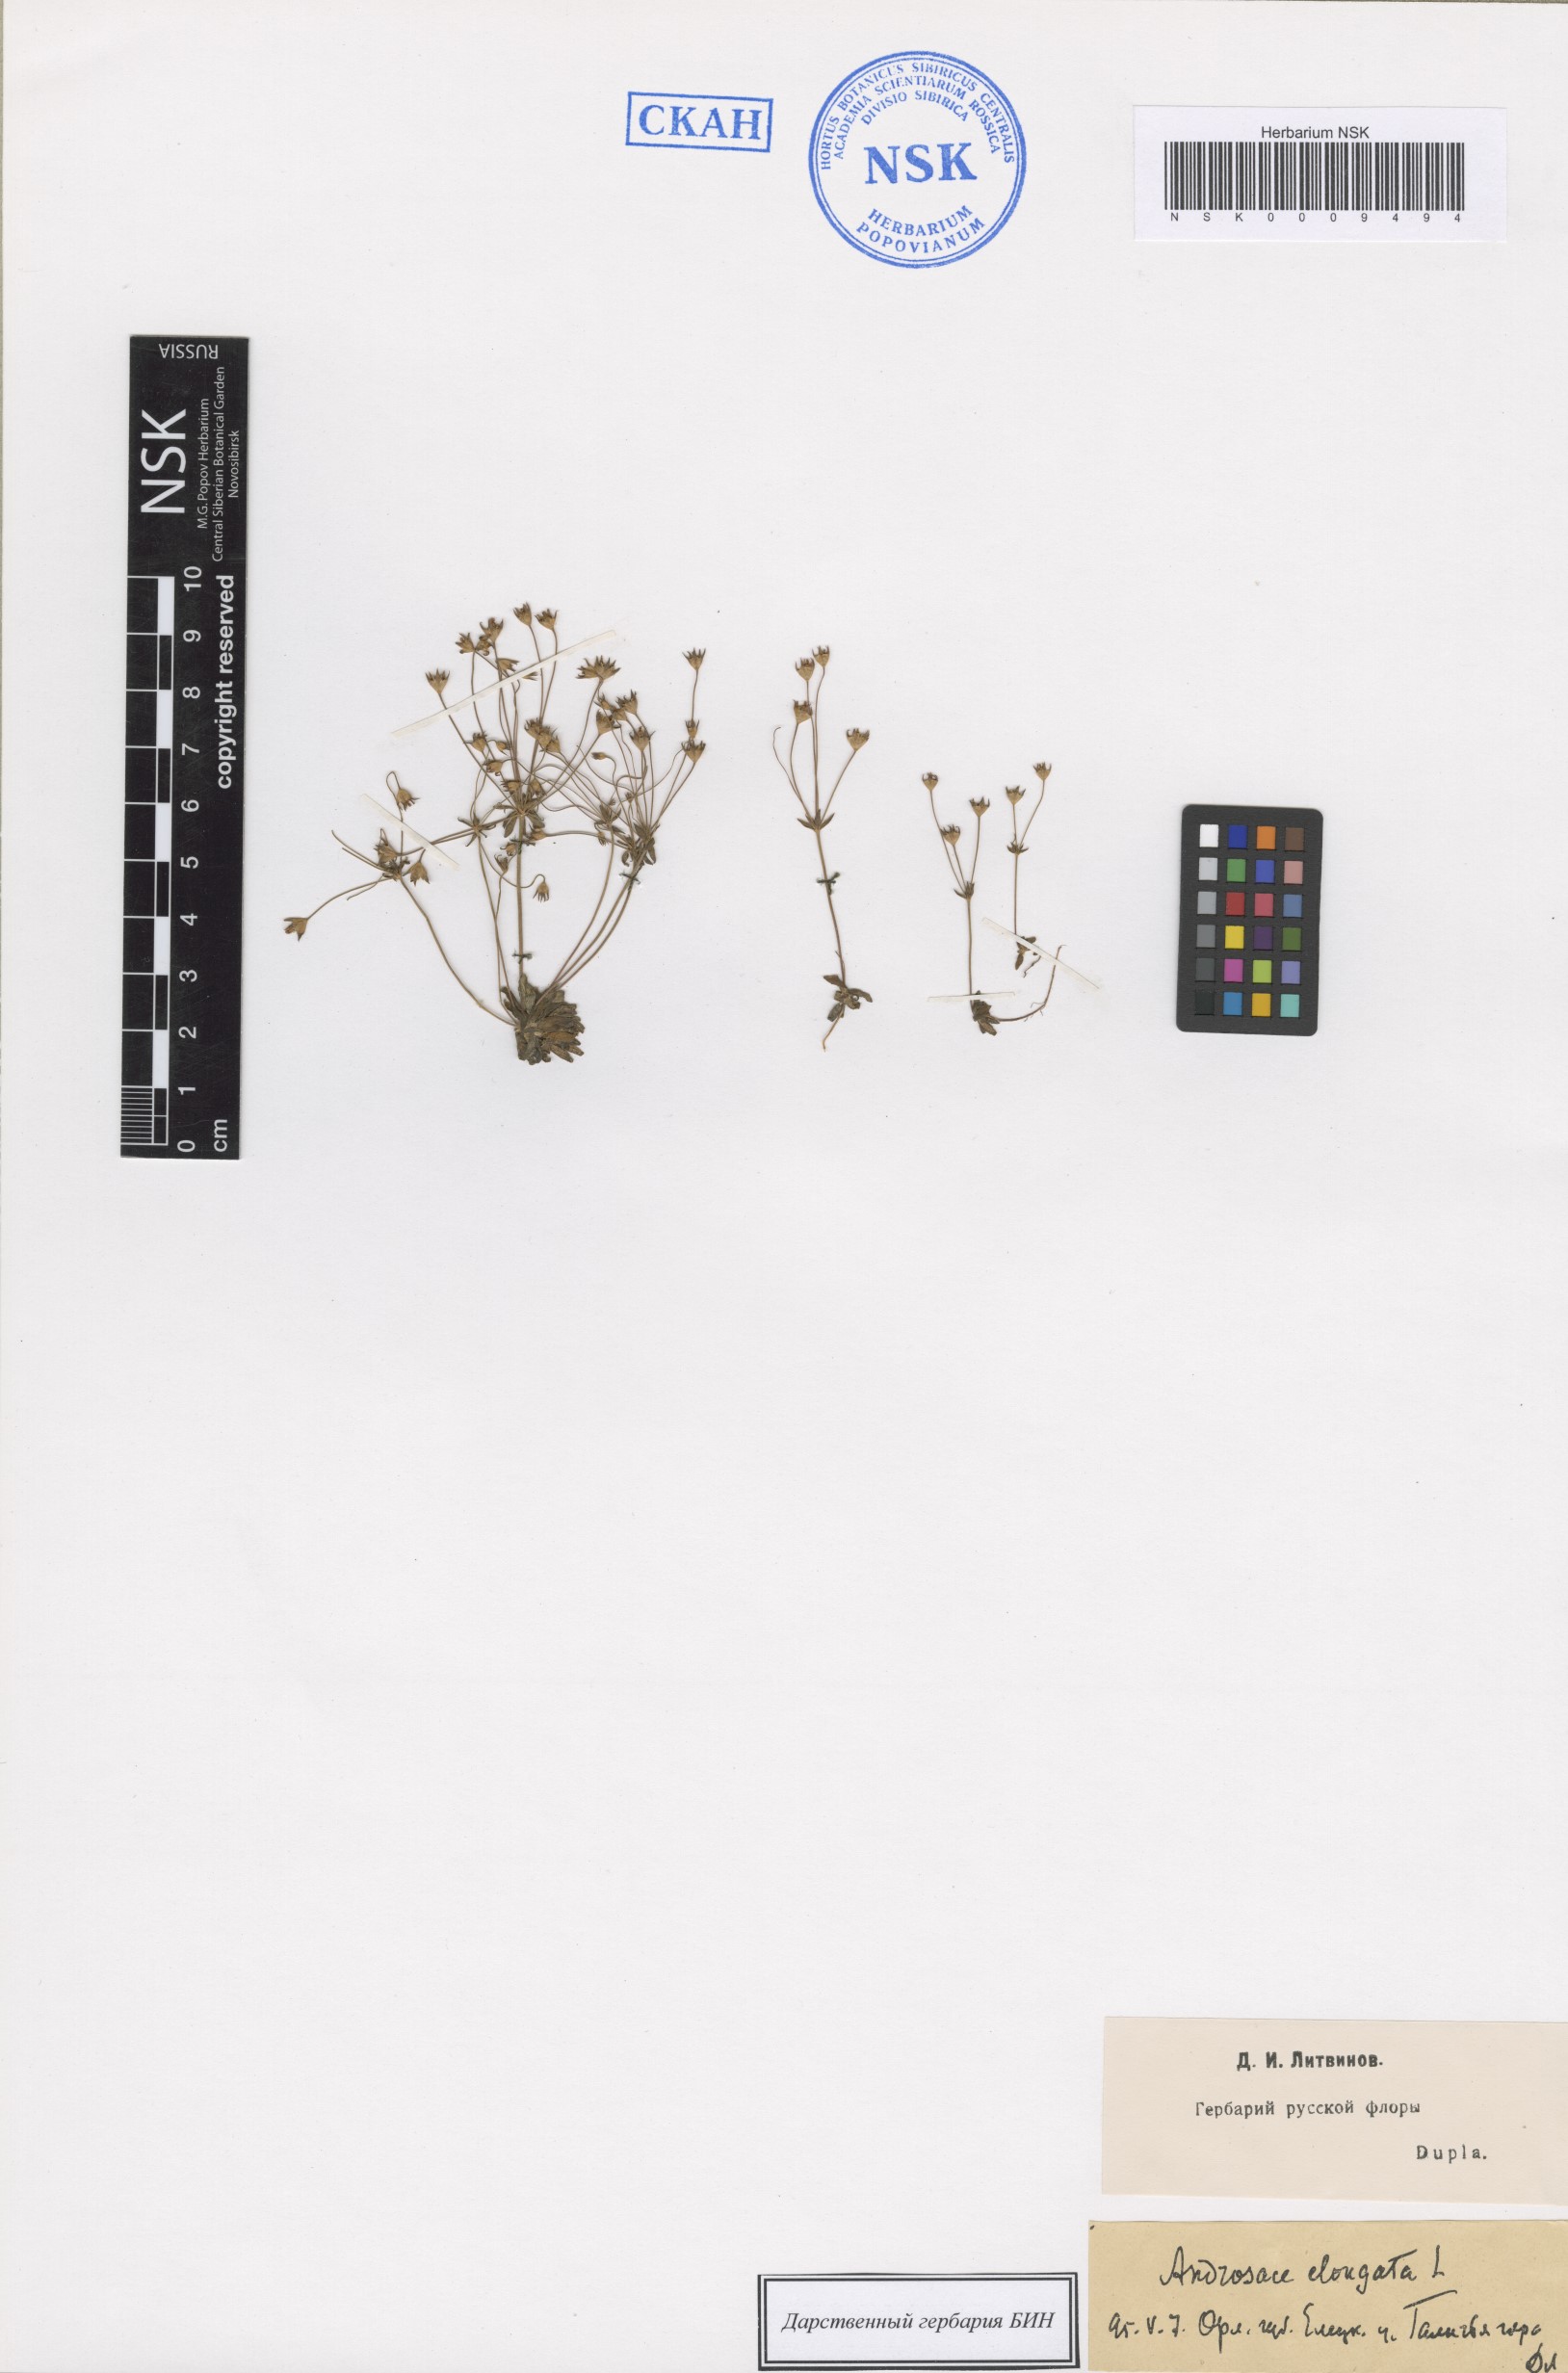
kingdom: Plantae
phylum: Tracheophyta
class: Magnoliopsida
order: Ericales
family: Primulaceae
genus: Androsace
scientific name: Androsace elongata
